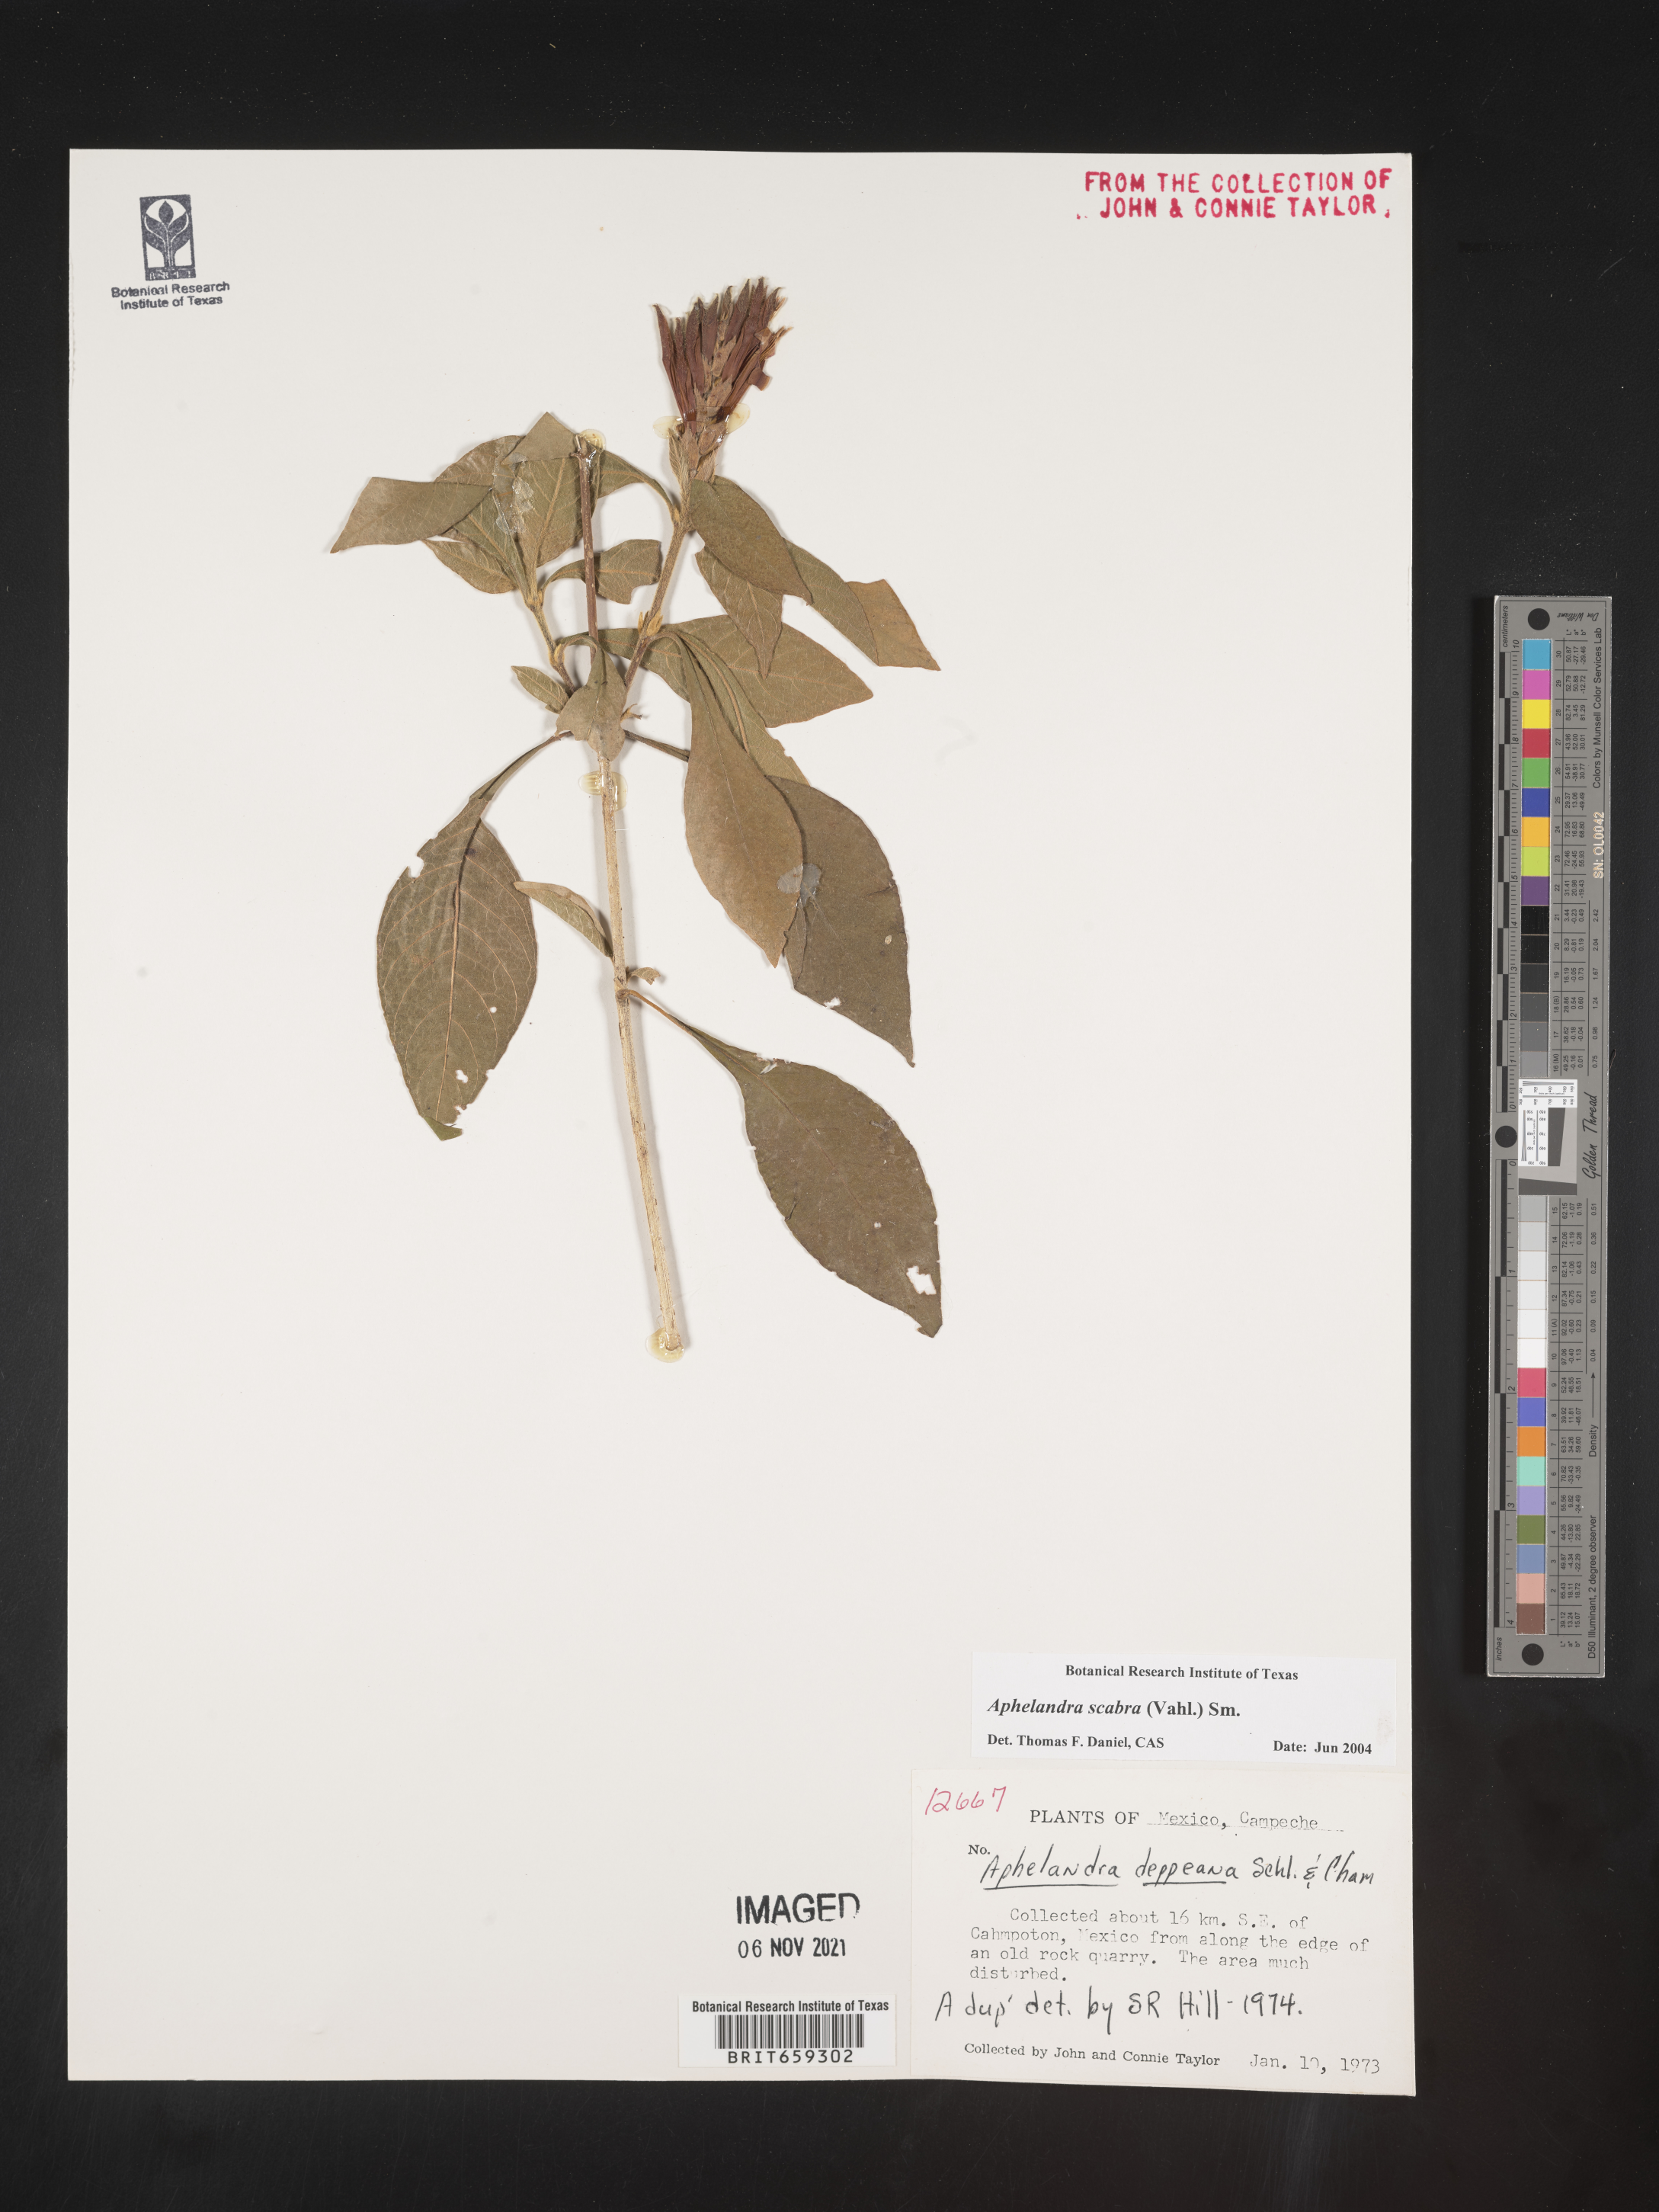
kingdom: Plantae
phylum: Tracheophyta
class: Magnoliopsida
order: Lamiales
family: Acanthaceae
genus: Aphelandra
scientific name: Aphelandra
